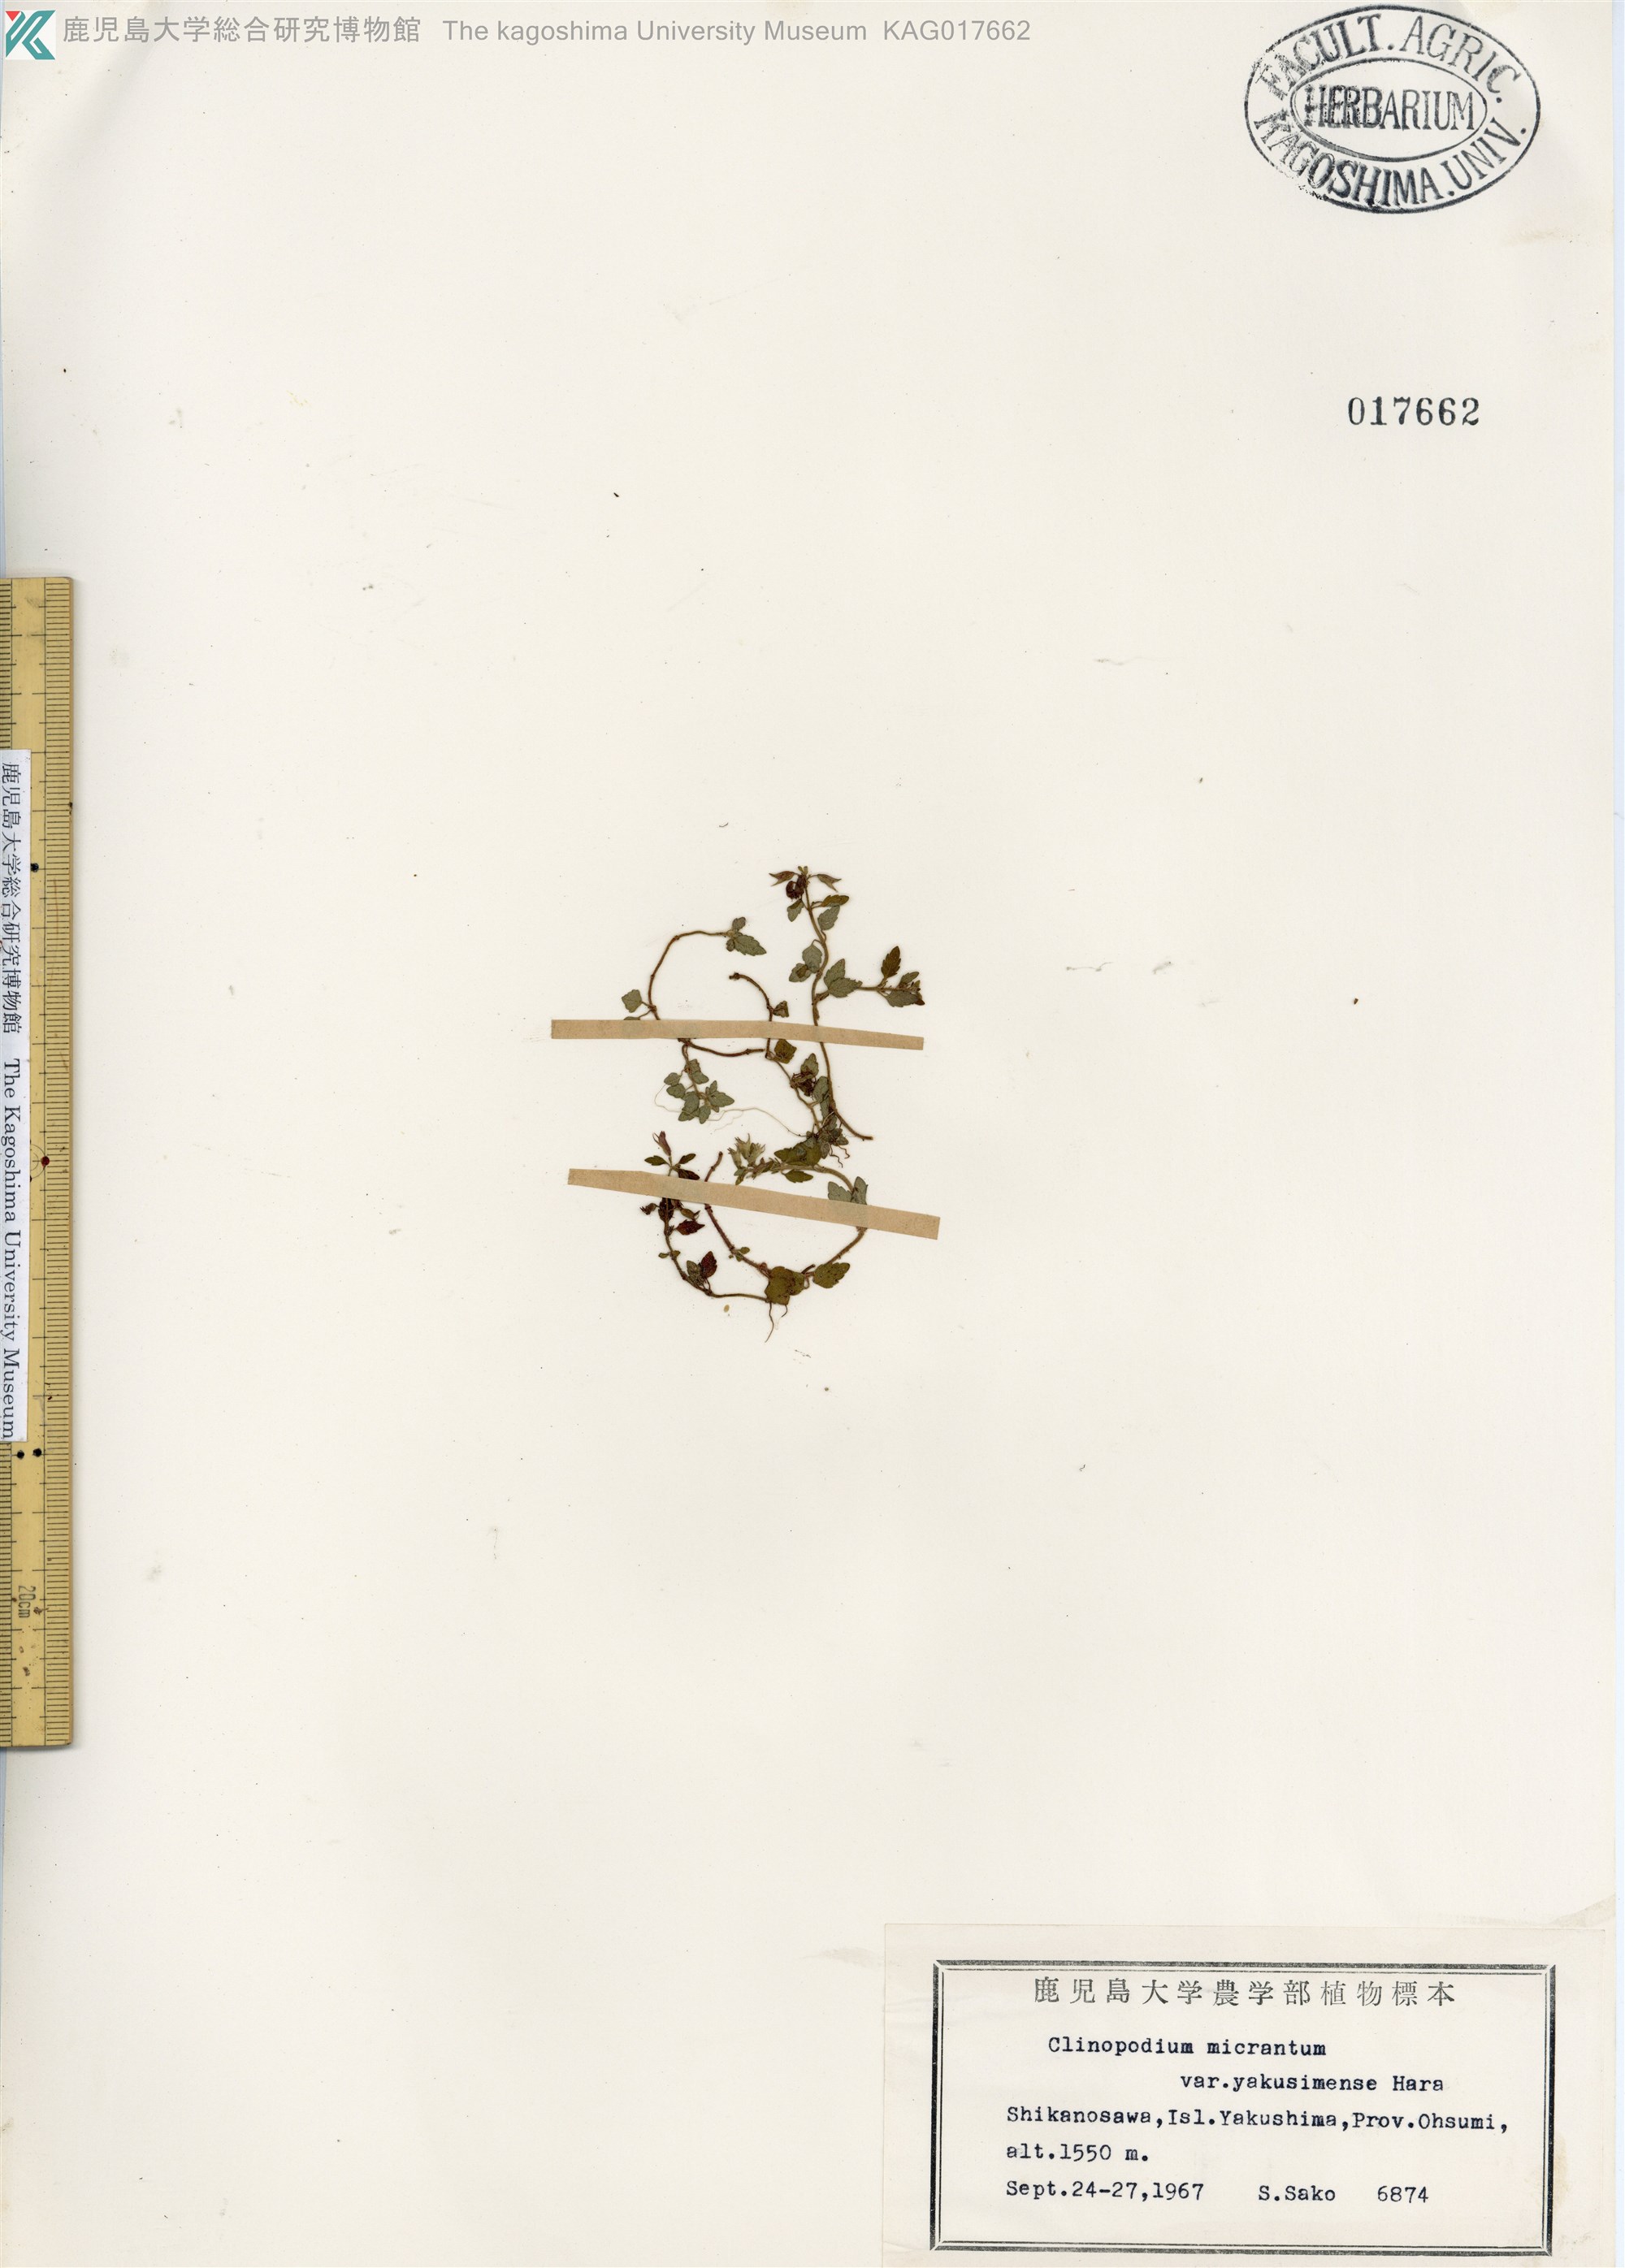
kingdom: Plantae
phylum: Tracheophyta
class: Magnoliopsida
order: Lamiales
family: Lamiaceae
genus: Clinopodium
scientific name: Clinopodium multicaule
